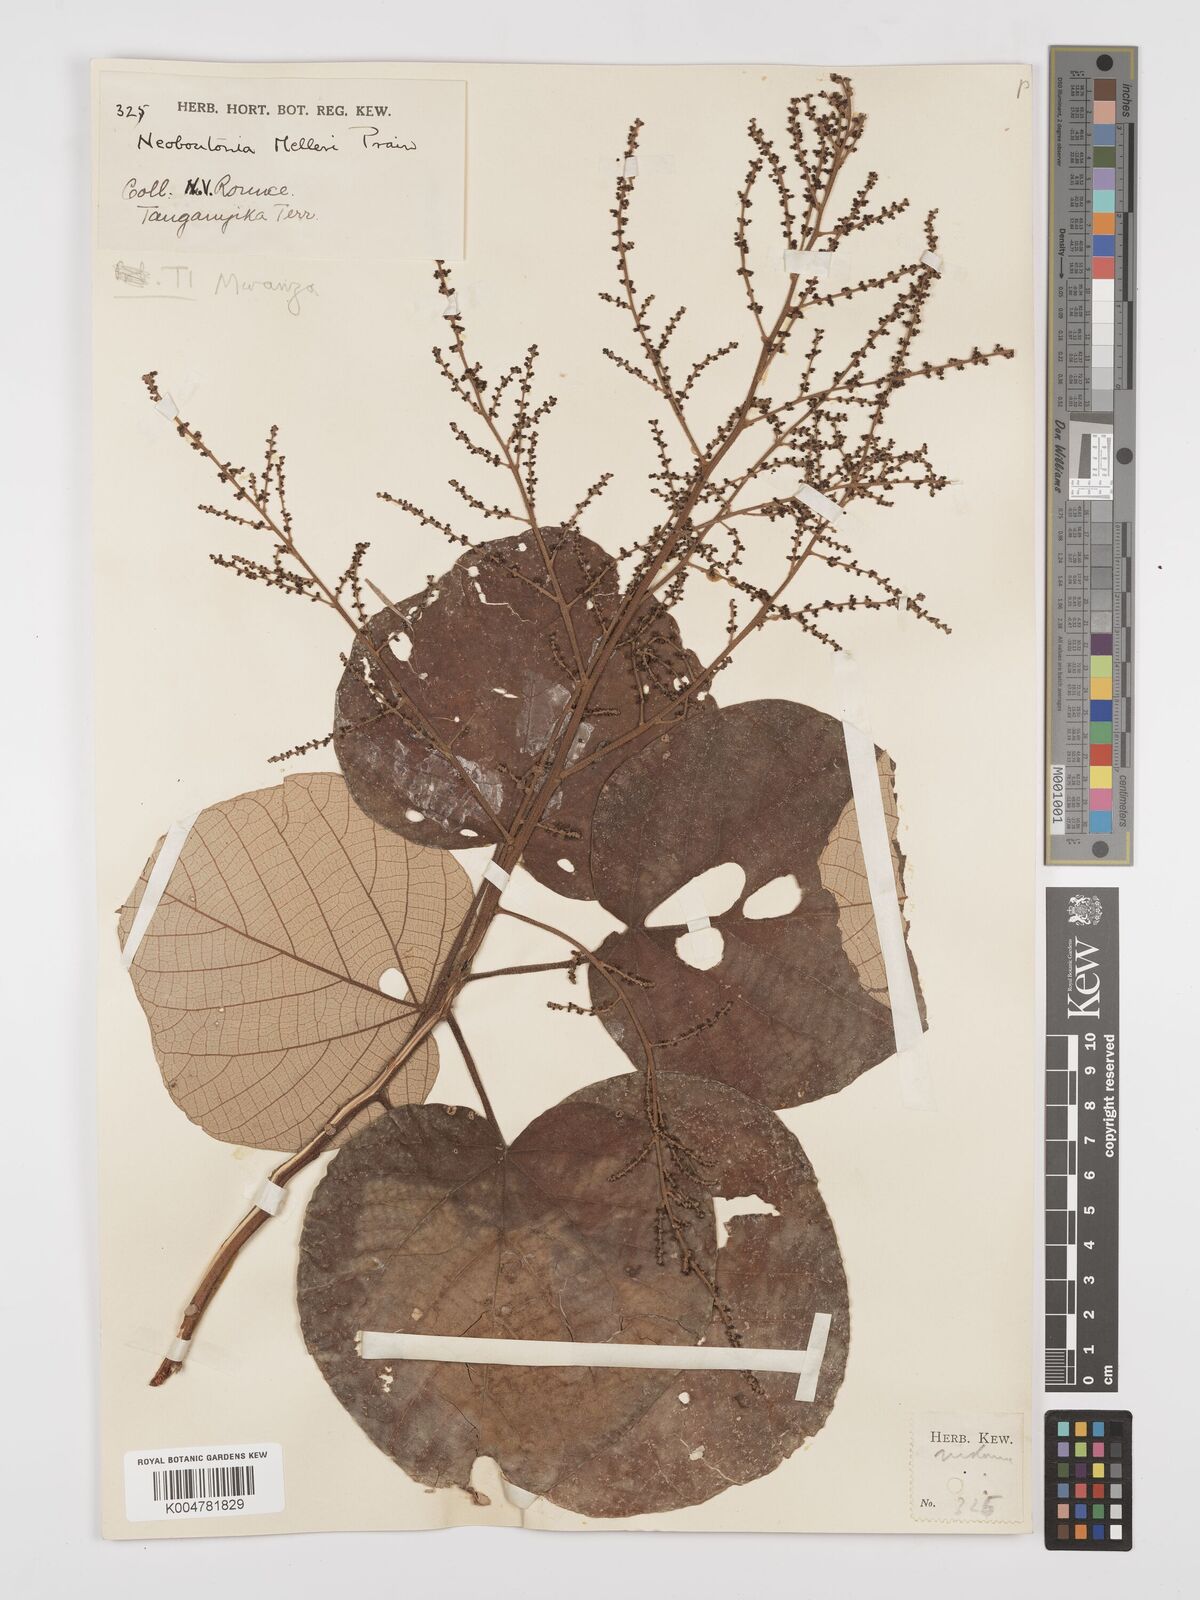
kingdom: Plantae
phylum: Tracheophyta
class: Magnoliopsida
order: Malpighiales
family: Euphorbiaceae
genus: Neoboutonia
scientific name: Neoboutonia melleri
